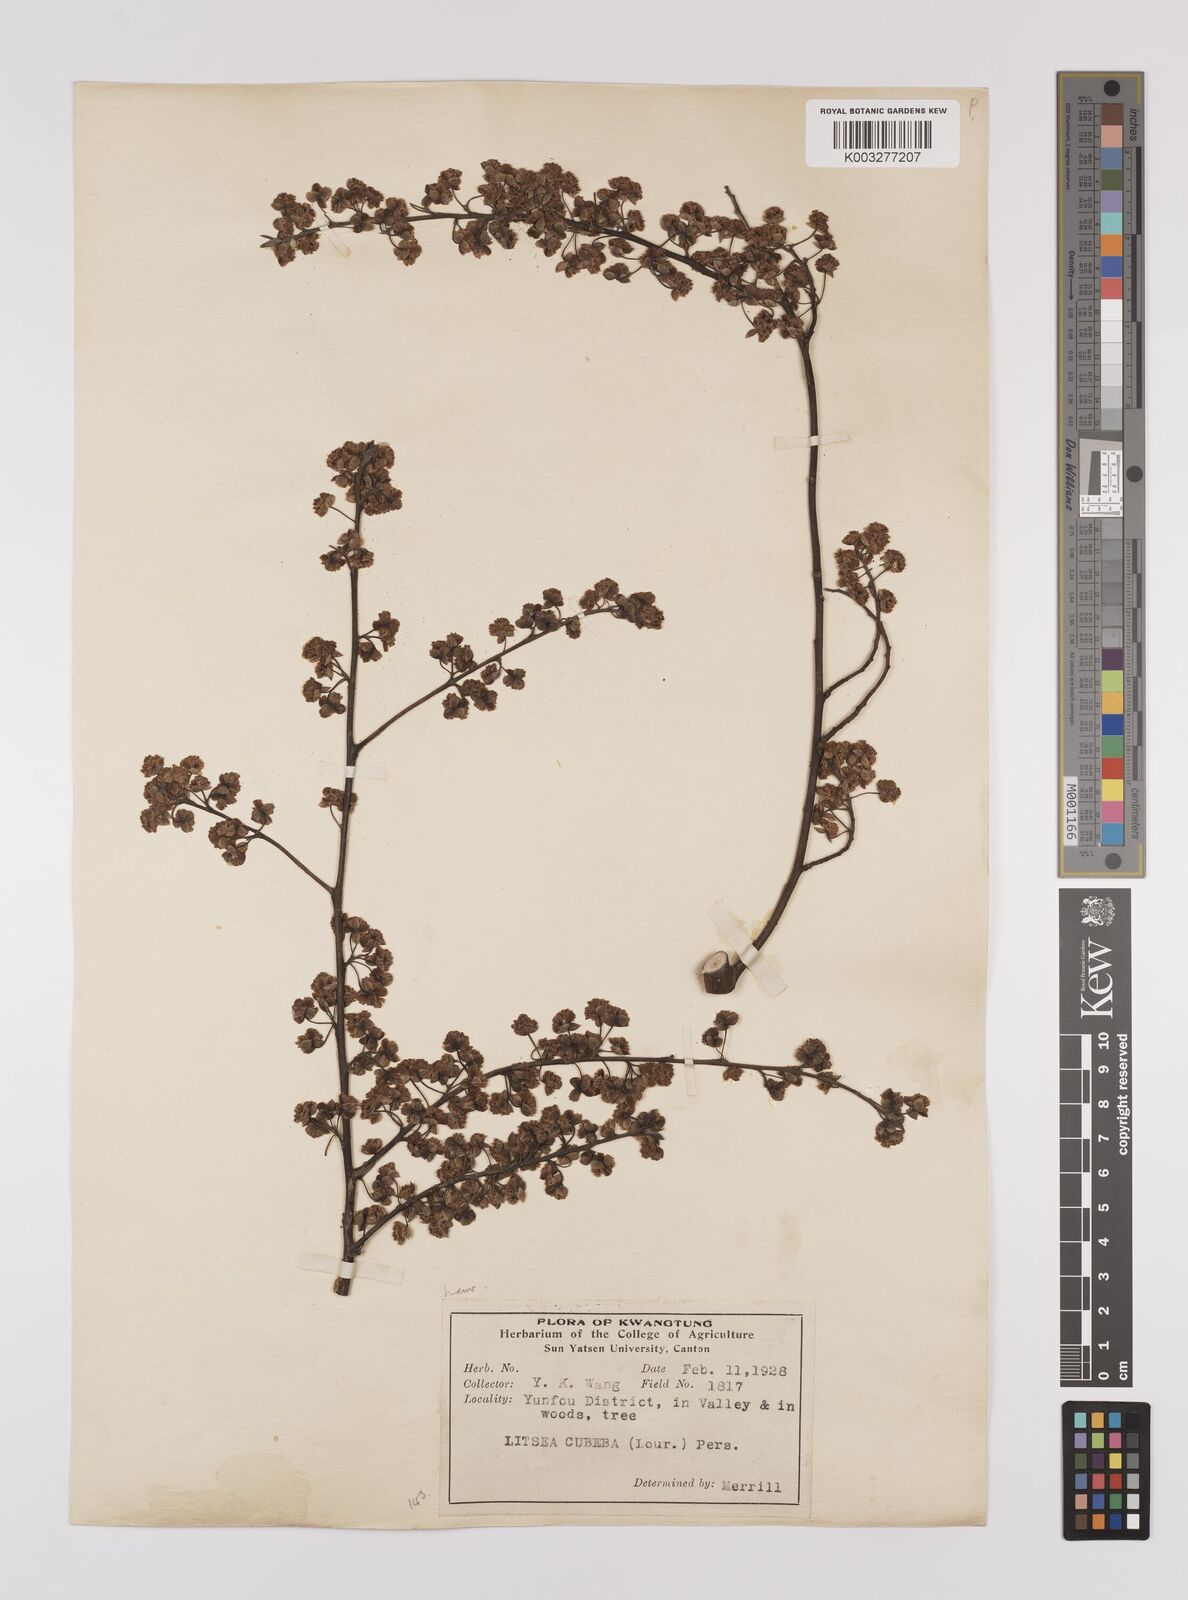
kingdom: Plantae
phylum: Tracheophyta
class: Magnoliopsida
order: Laurales
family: Lauraceae
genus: Litsea
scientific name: Litsea cubeba
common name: Mountain-pepper
